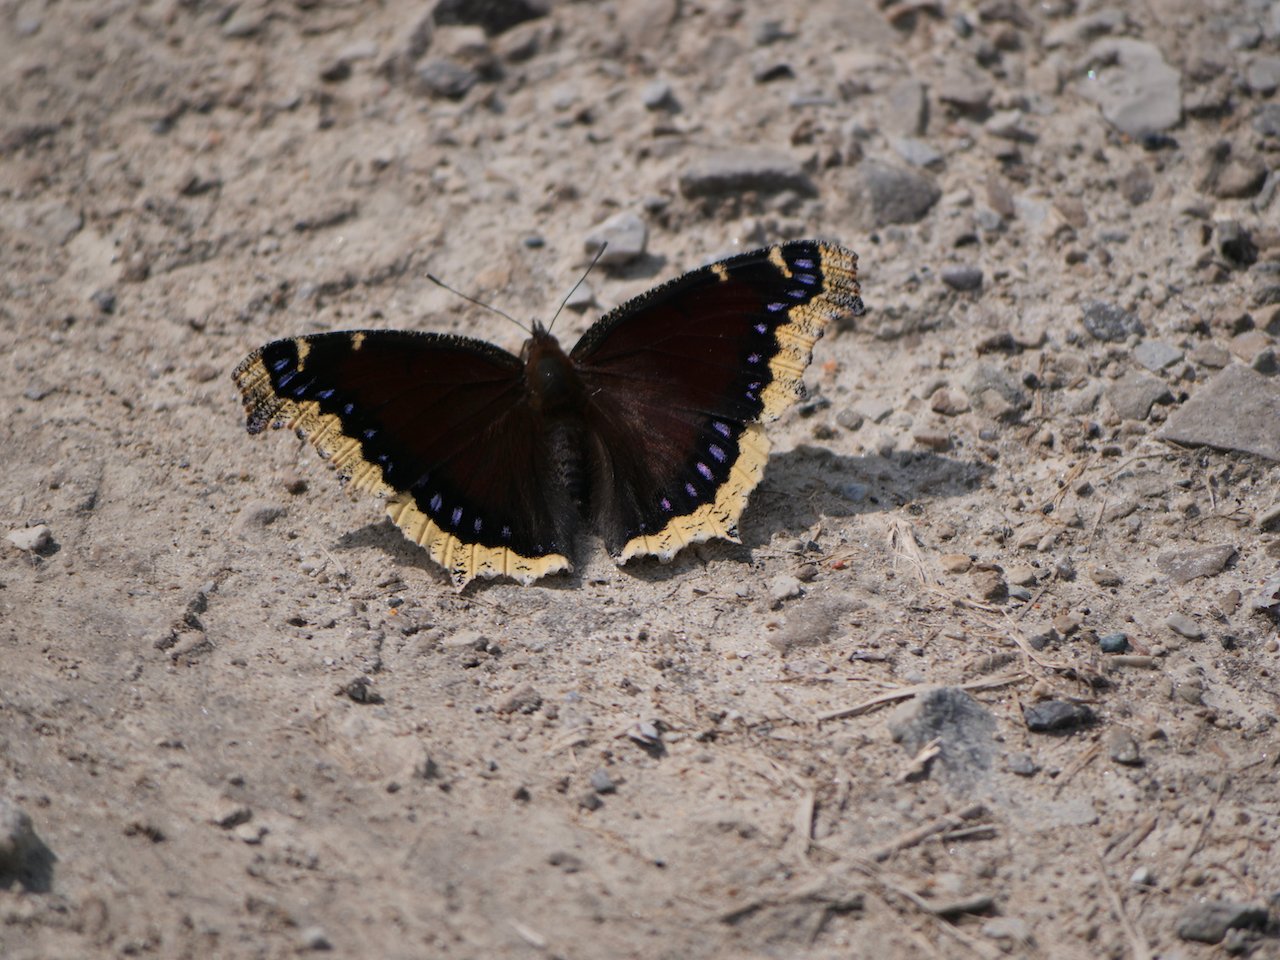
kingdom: Animalia
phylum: Arthropoda
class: Insecta
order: Lepidoptera
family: Nymphalidae
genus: Nymphalis
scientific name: Nymphalis antiopa
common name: Mourning Cloak
